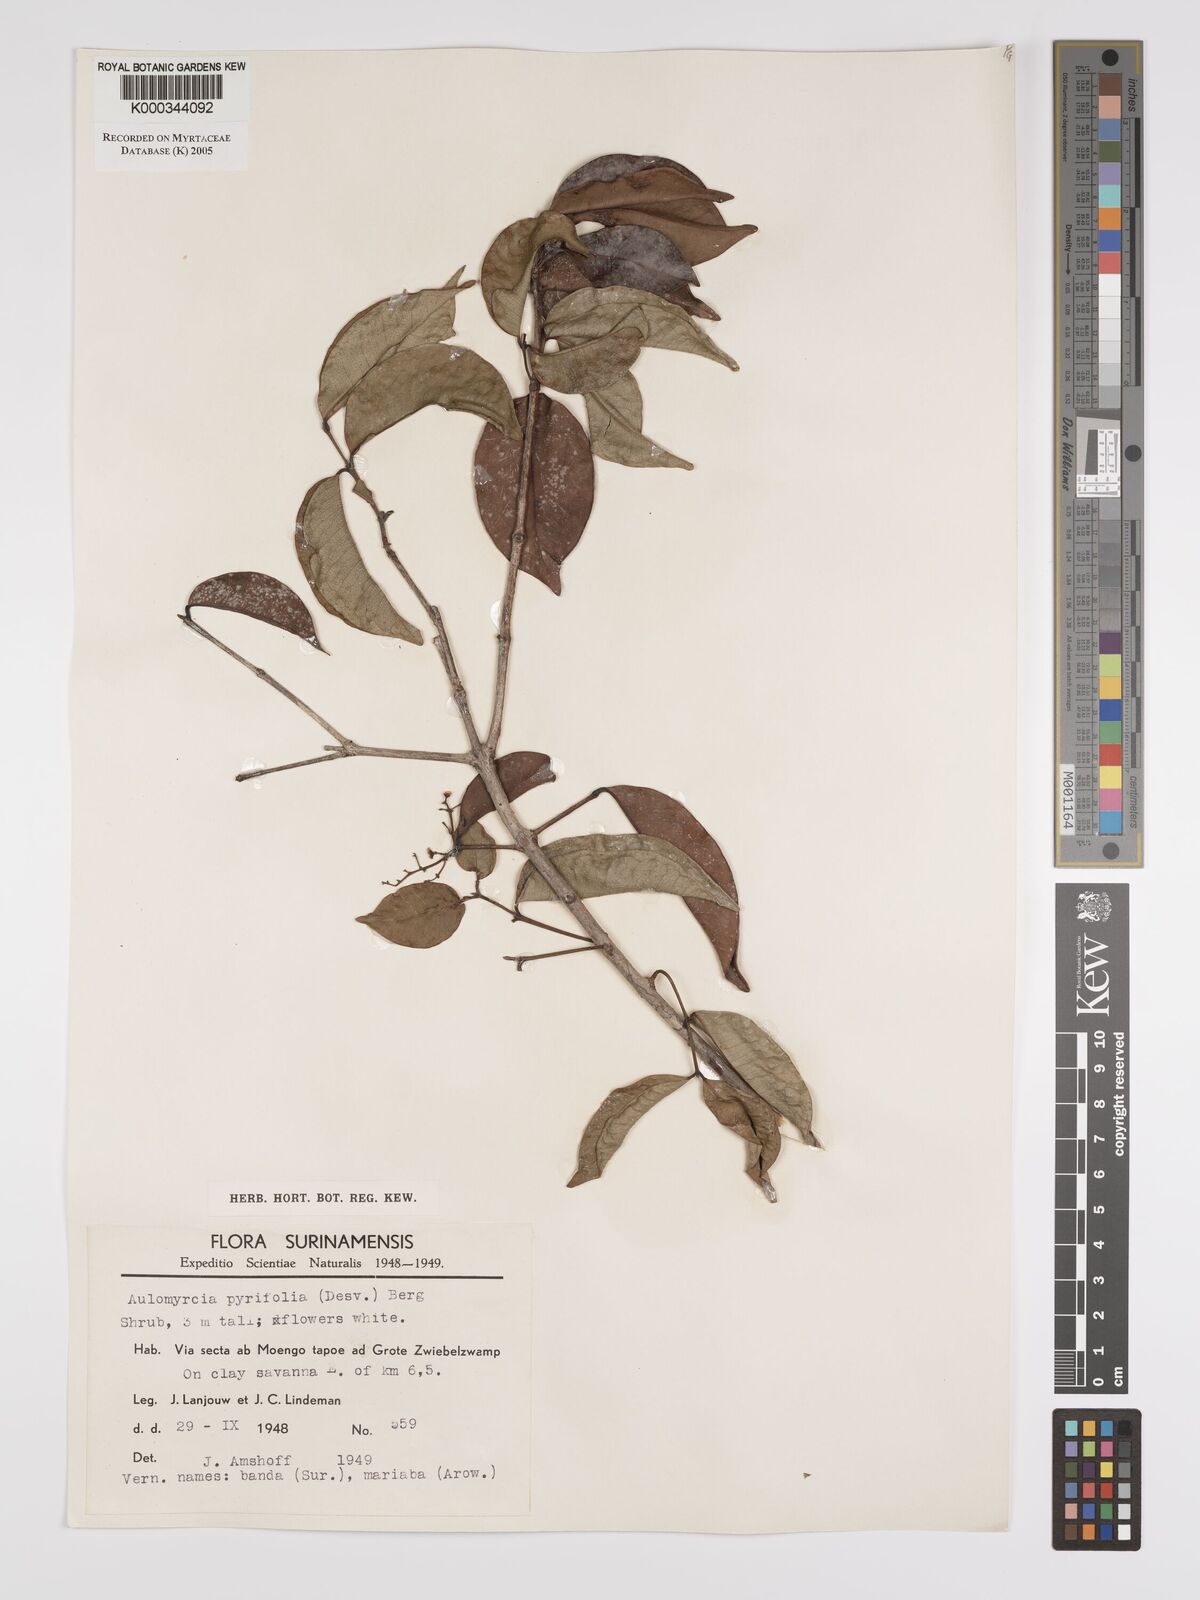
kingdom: Plantae
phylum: Tracheophyta
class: Magnoliopsida
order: Myrtales
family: Myrtaceae
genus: Myrcia
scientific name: Myrcia pyrifolia
